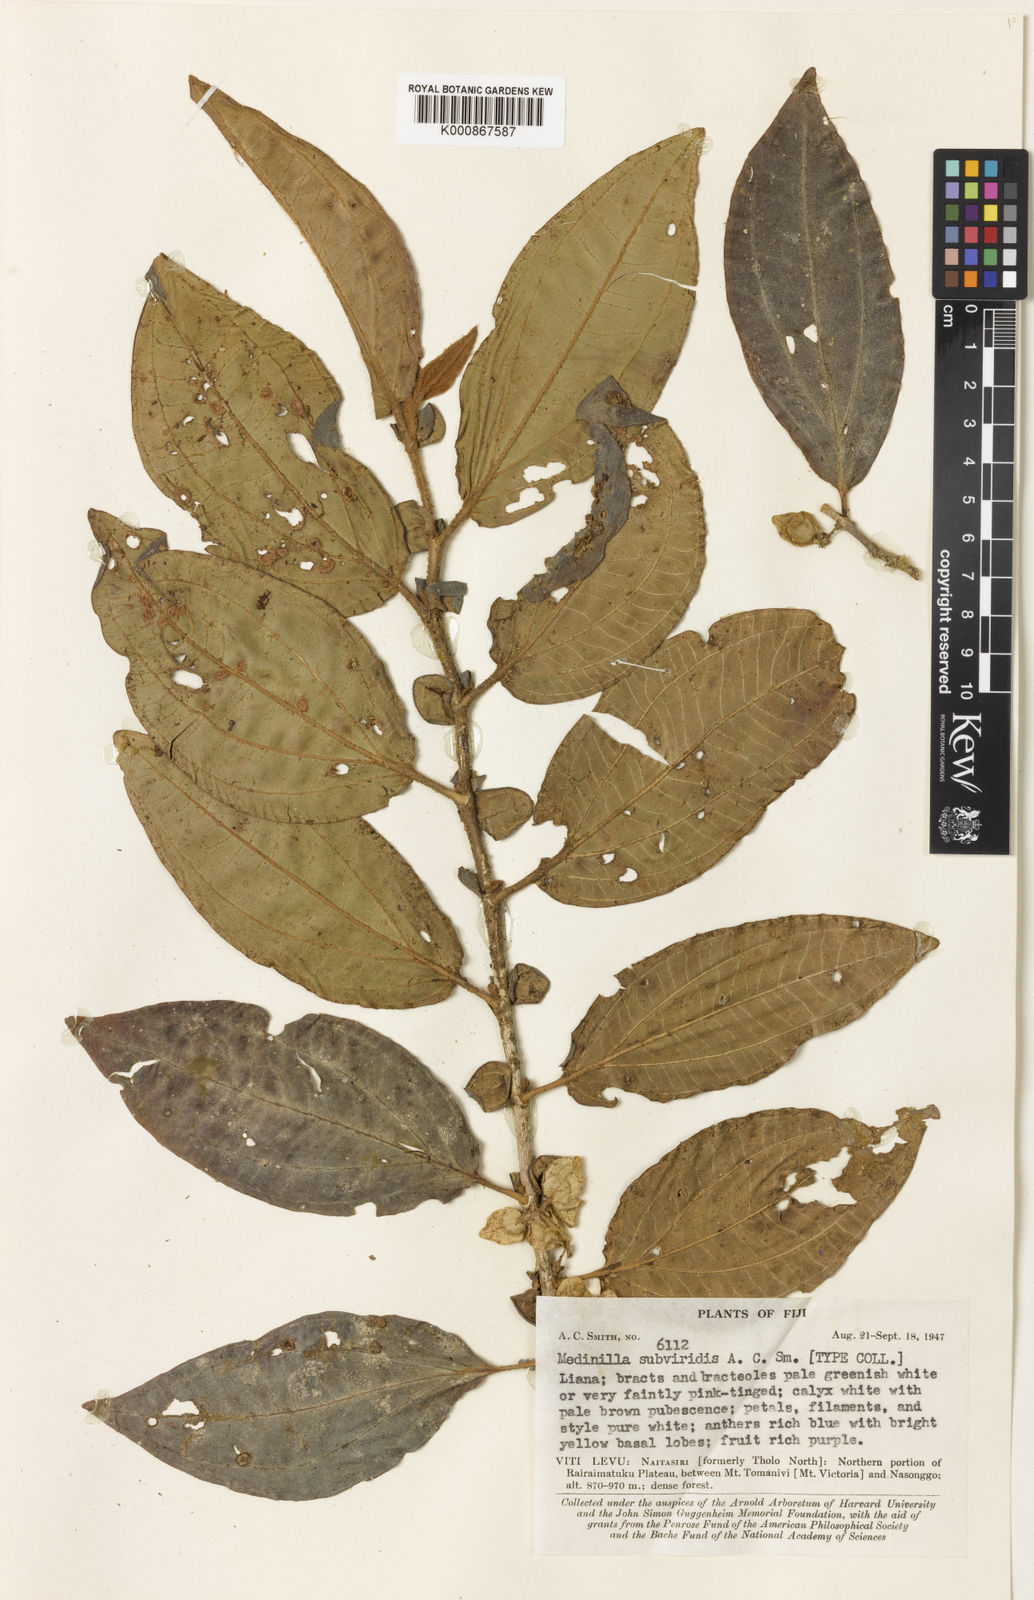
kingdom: Plantae
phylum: Tracheophyta
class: Magnoliopsida
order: Myrtales
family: Melastomataceae
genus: Medinilla
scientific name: Medinilla subviridis
